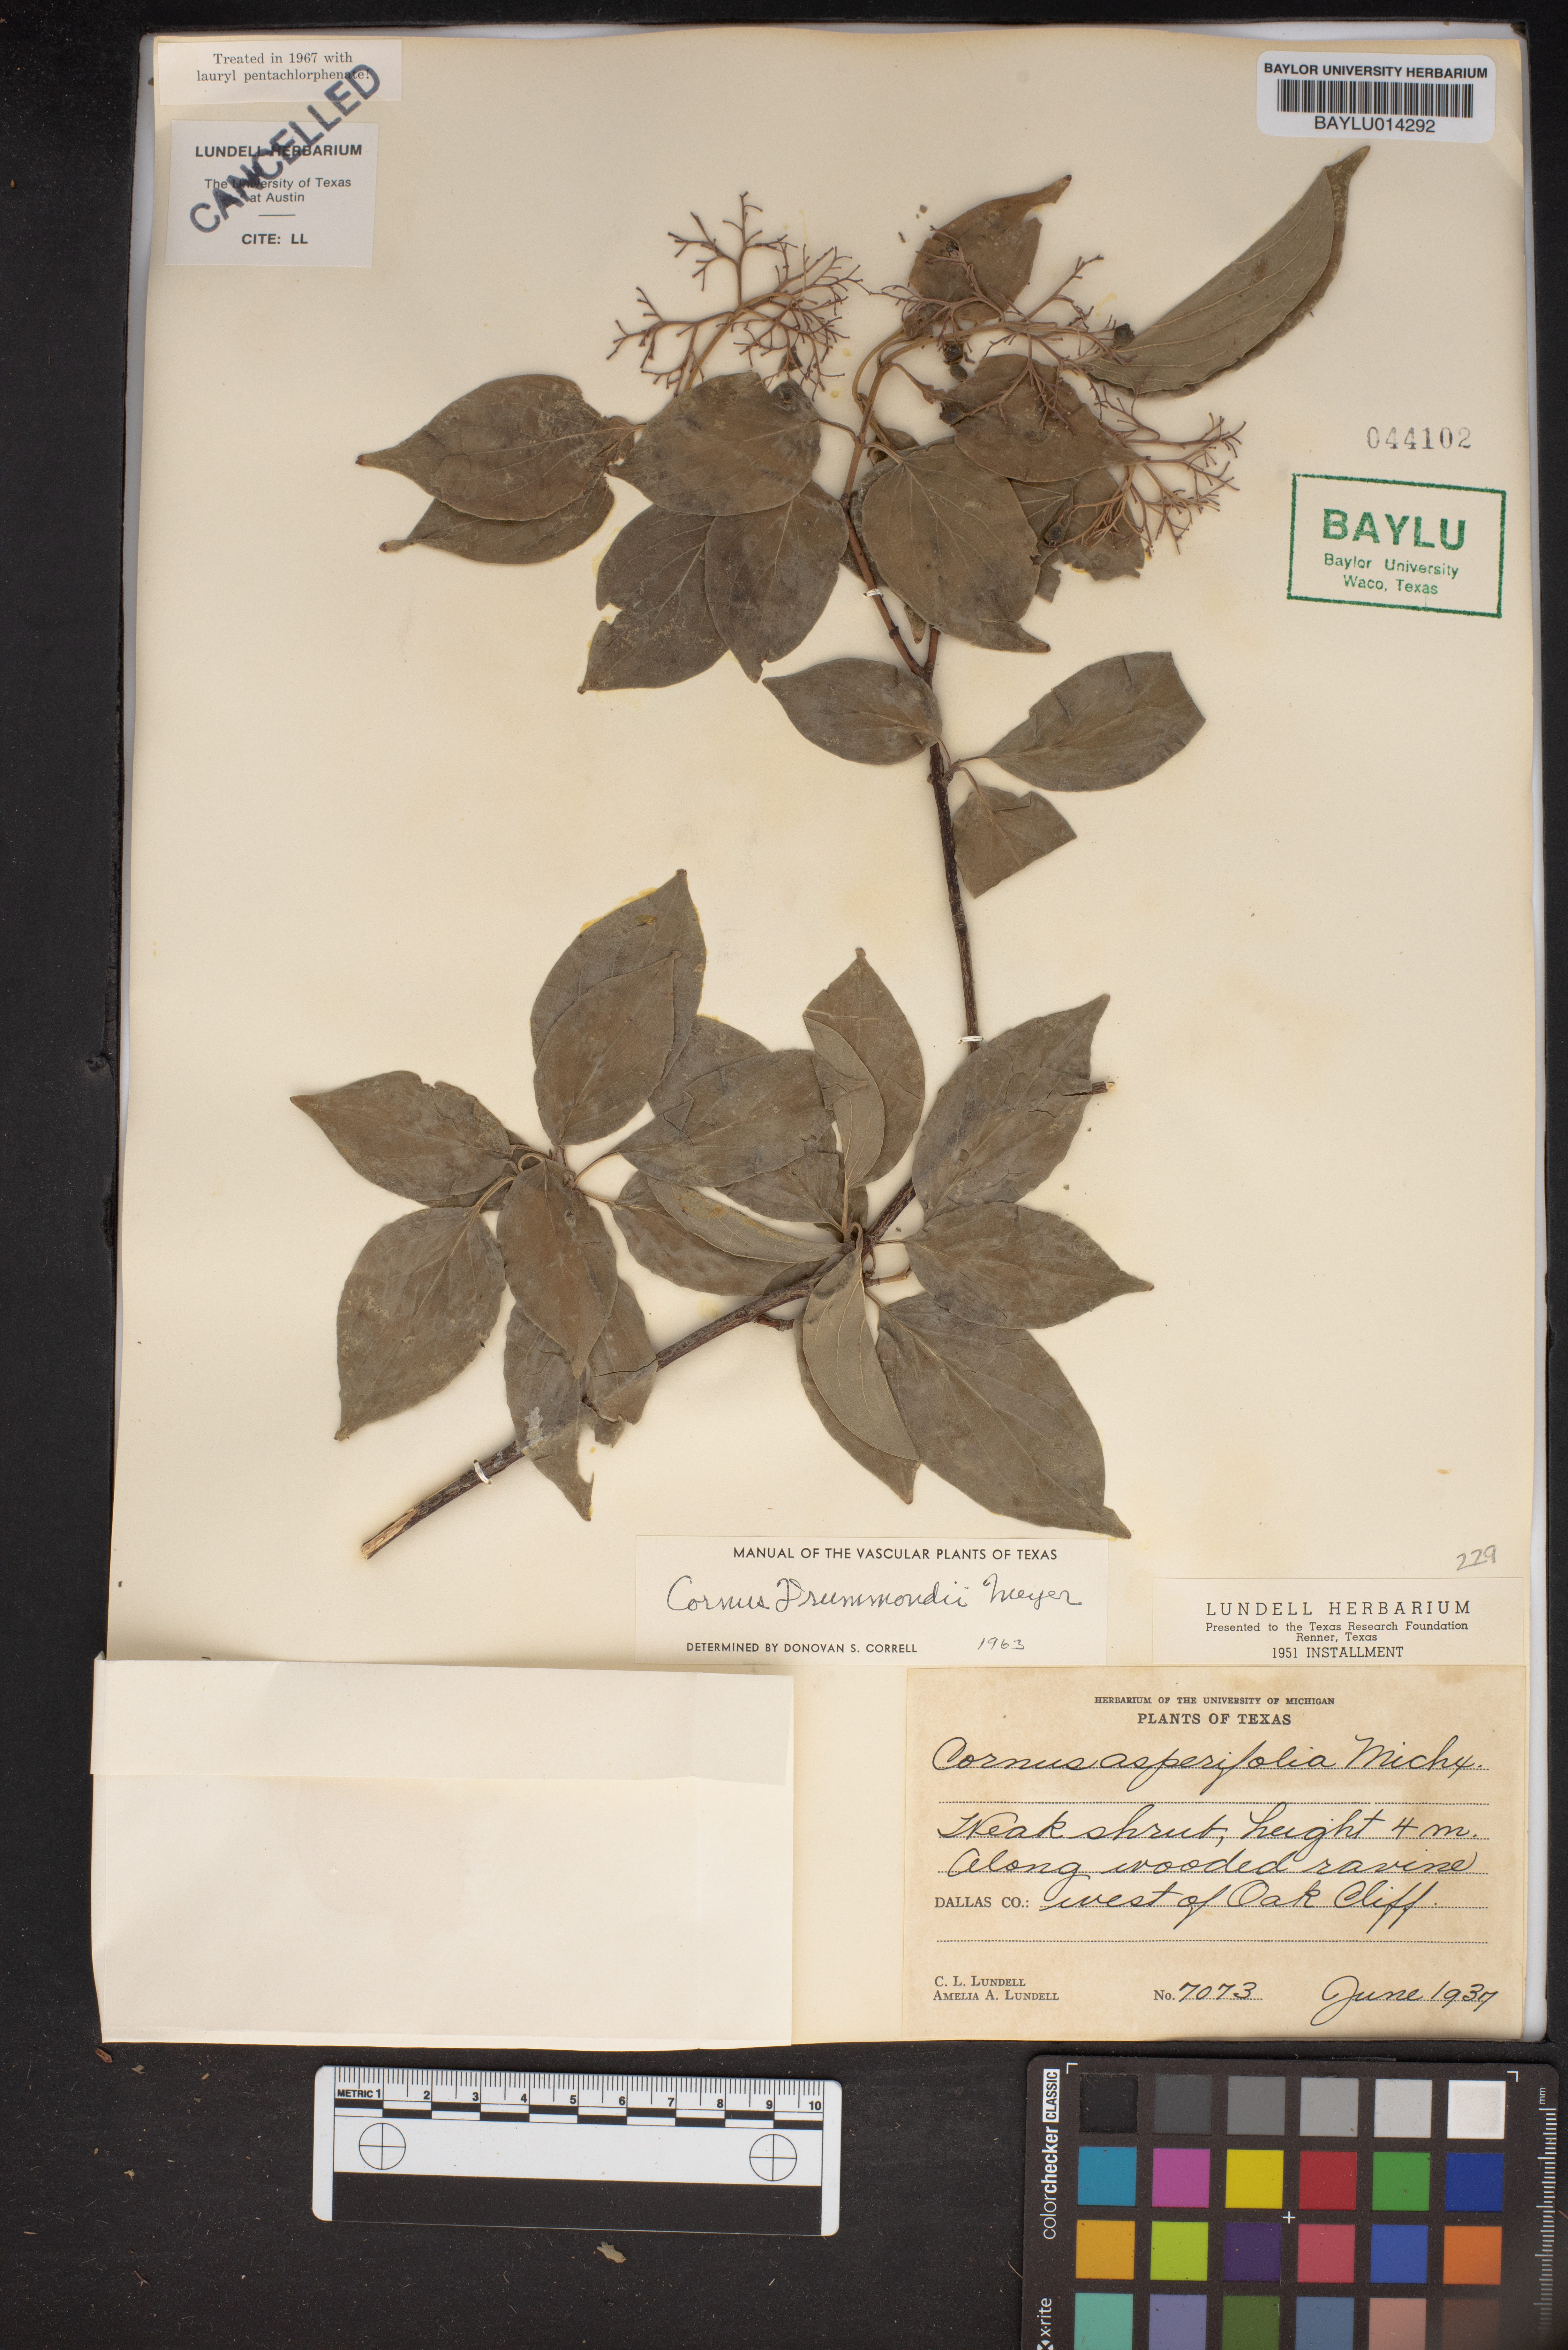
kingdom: Plantae
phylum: Tracheophyta
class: Magnoliopsida
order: Cornales
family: Cornaceae
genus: Cornus
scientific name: Cornus drummondii
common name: Rough-leaf dogwood
